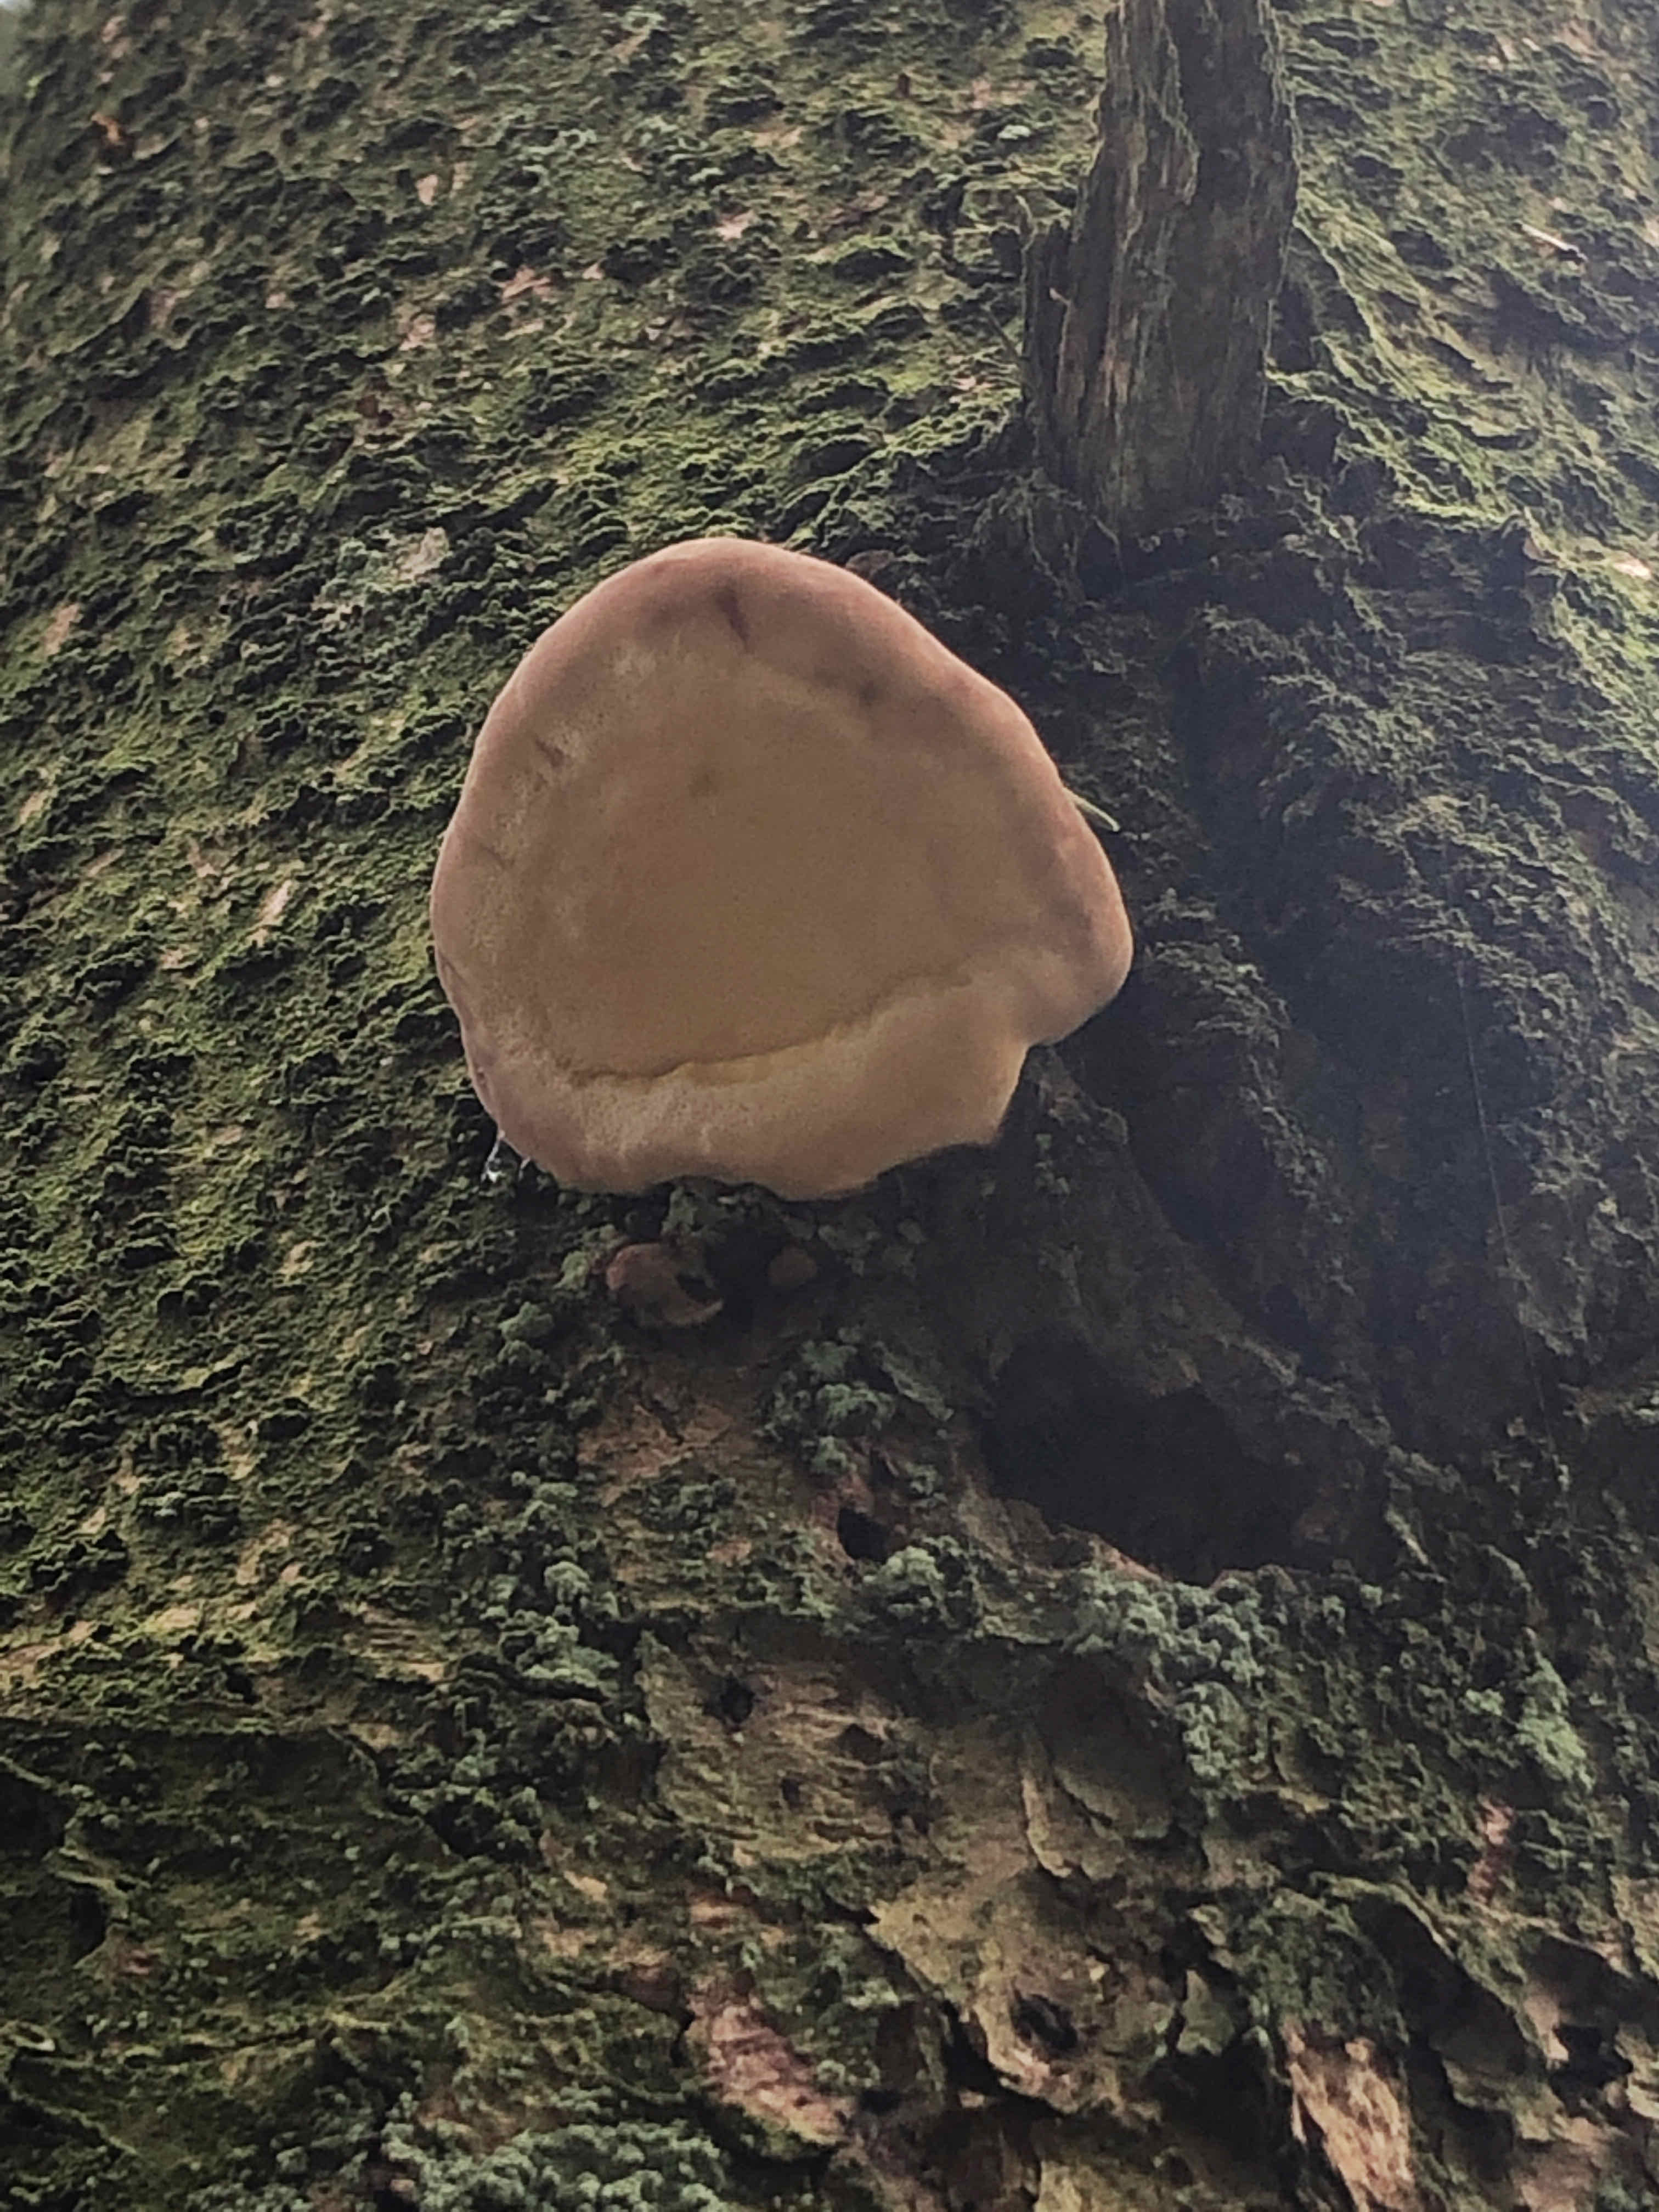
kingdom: Fungi
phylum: Basidiomycota
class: Agaricomycetes
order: Polyporales
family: Fomitopsidaceae
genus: Fomitopsis
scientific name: Fomitopsis pinicola
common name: randbæltet hovporesvamp
